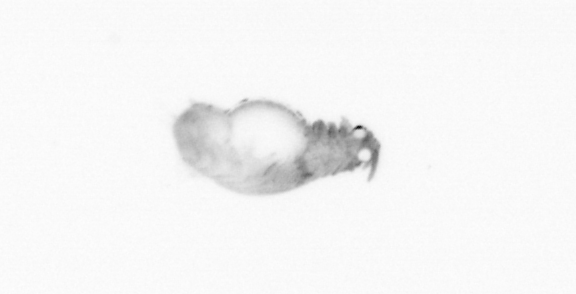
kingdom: Animalia
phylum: Annelida
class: Polychaeta
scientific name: Polychaeta
